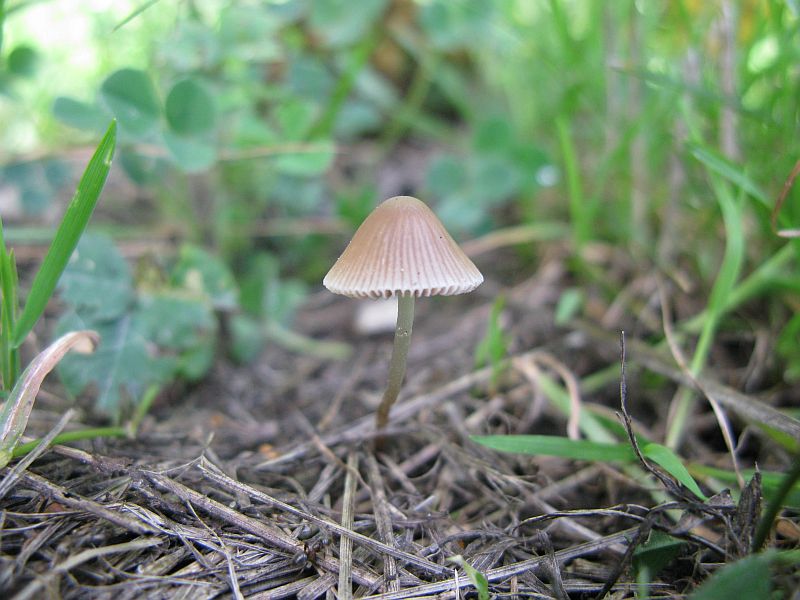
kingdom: Fungi
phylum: Basidiomycota
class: Agaricomycetes
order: Agaricales
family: Psathyrellaceae
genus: Psathyrella
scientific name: Psathyrella corrugis
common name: rødægget mørkhat
